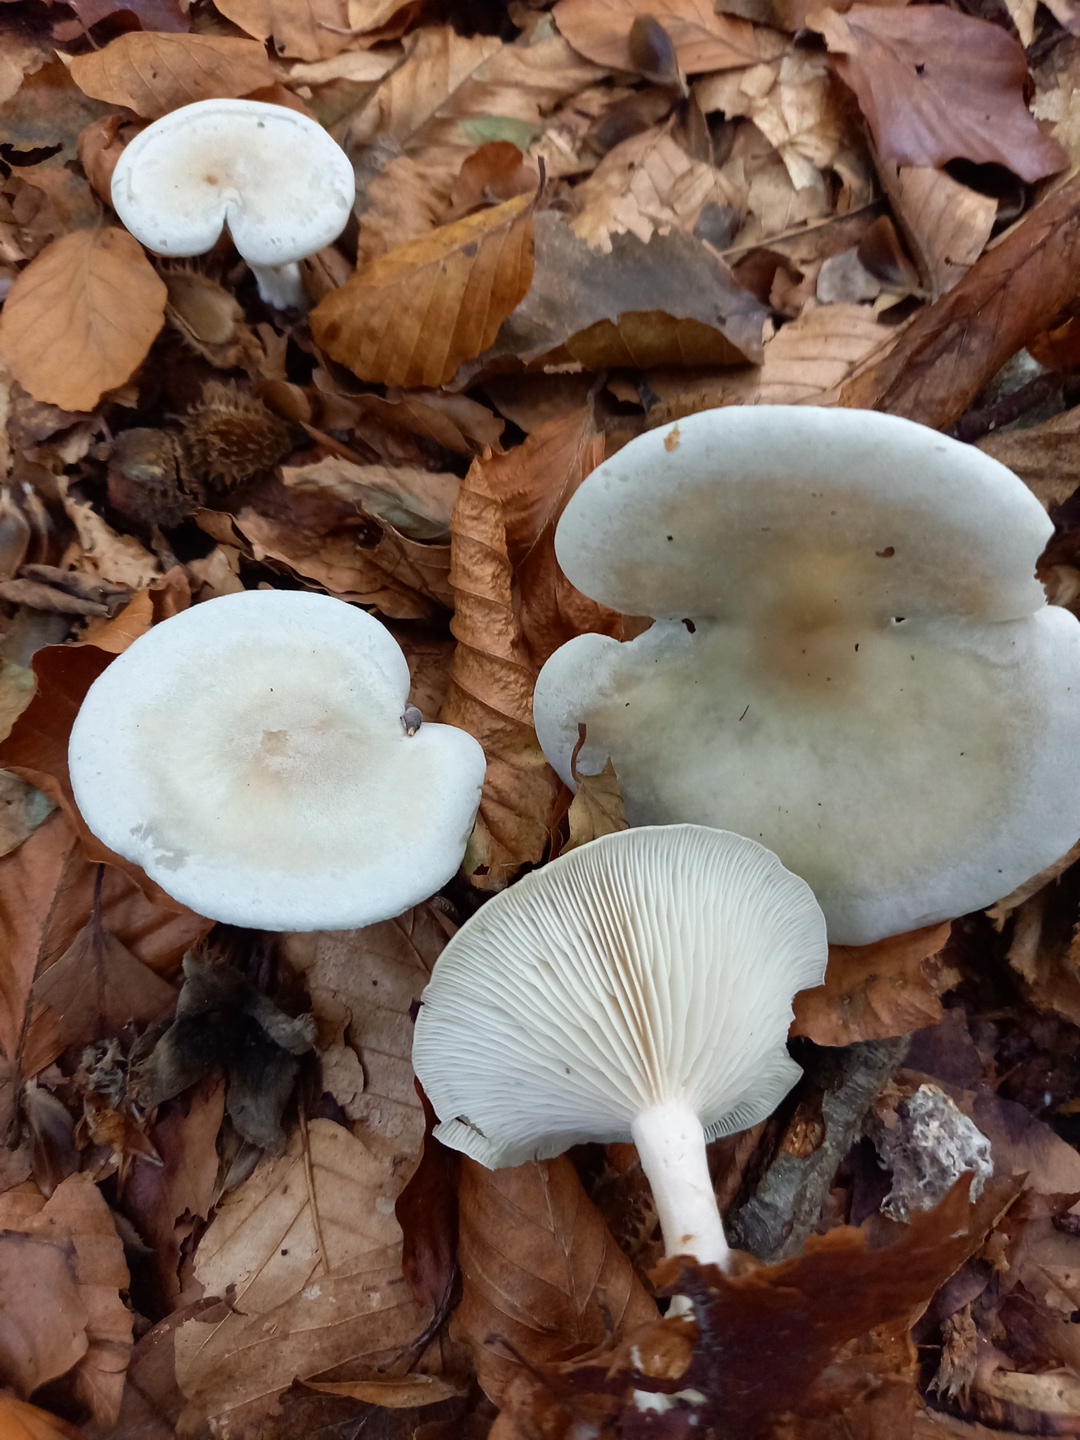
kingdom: Fungi
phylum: Basidiomycota
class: Agaricomycetes
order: Agaricales
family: Tricholomataceae
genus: Clitocybe
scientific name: Clitocybe odora
